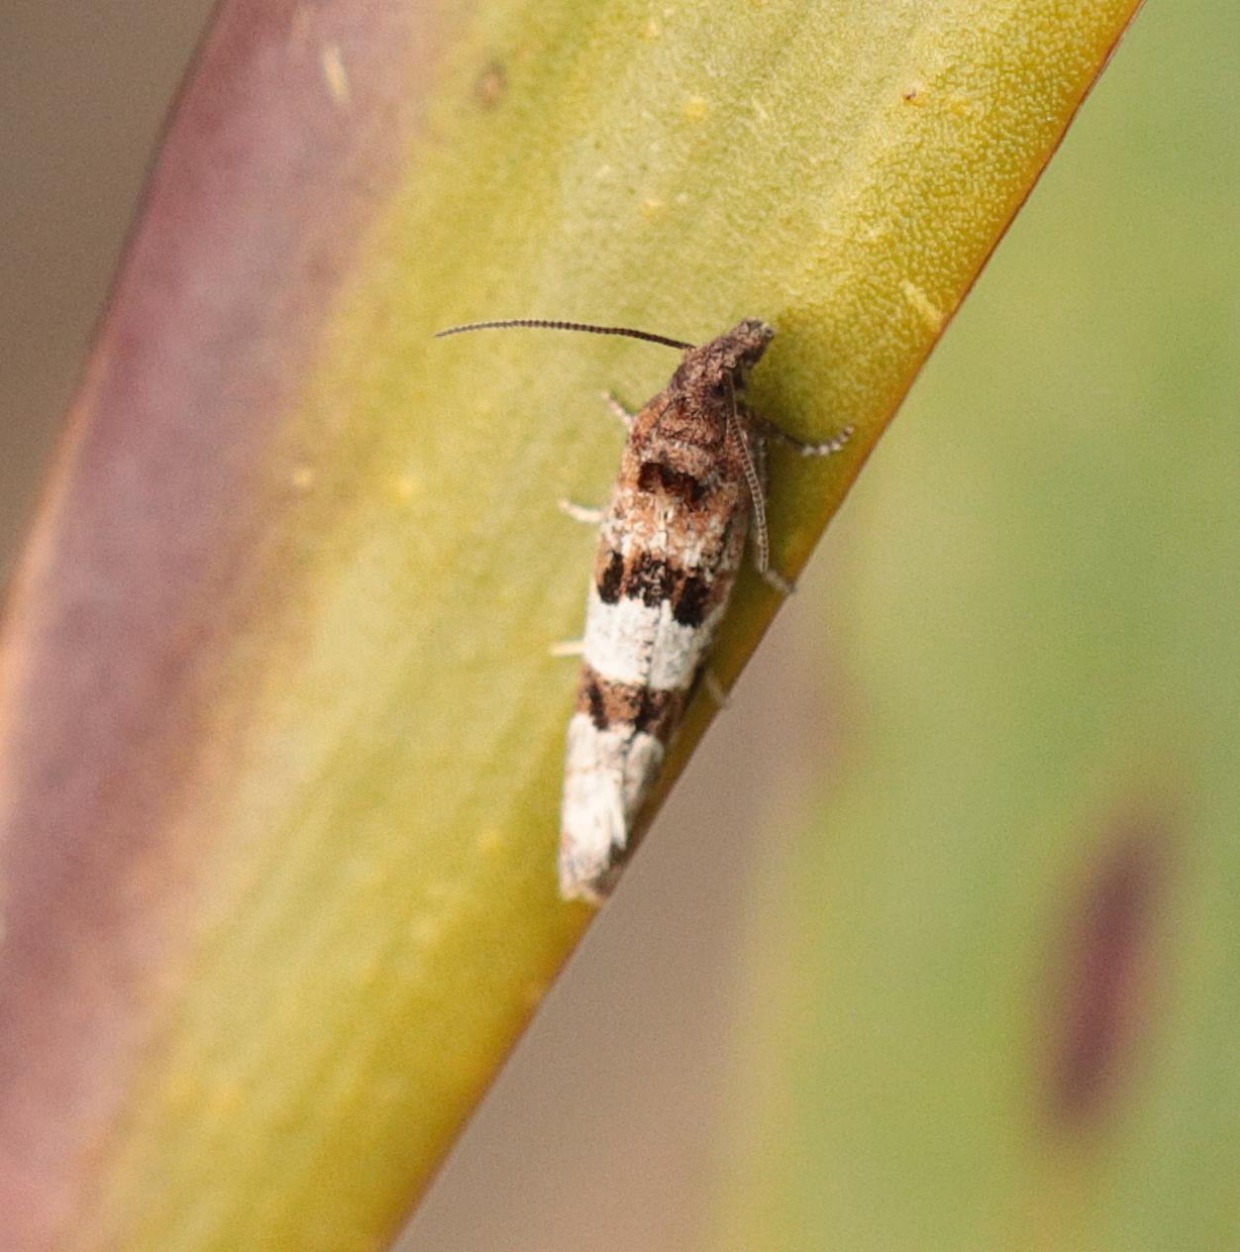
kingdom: Animalia
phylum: Arthropoda
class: Insecta
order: Lepidoptera
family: Tortricidae
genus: Lobesia
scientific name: Lobesia littoralis
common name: Engelskgræsvikler
